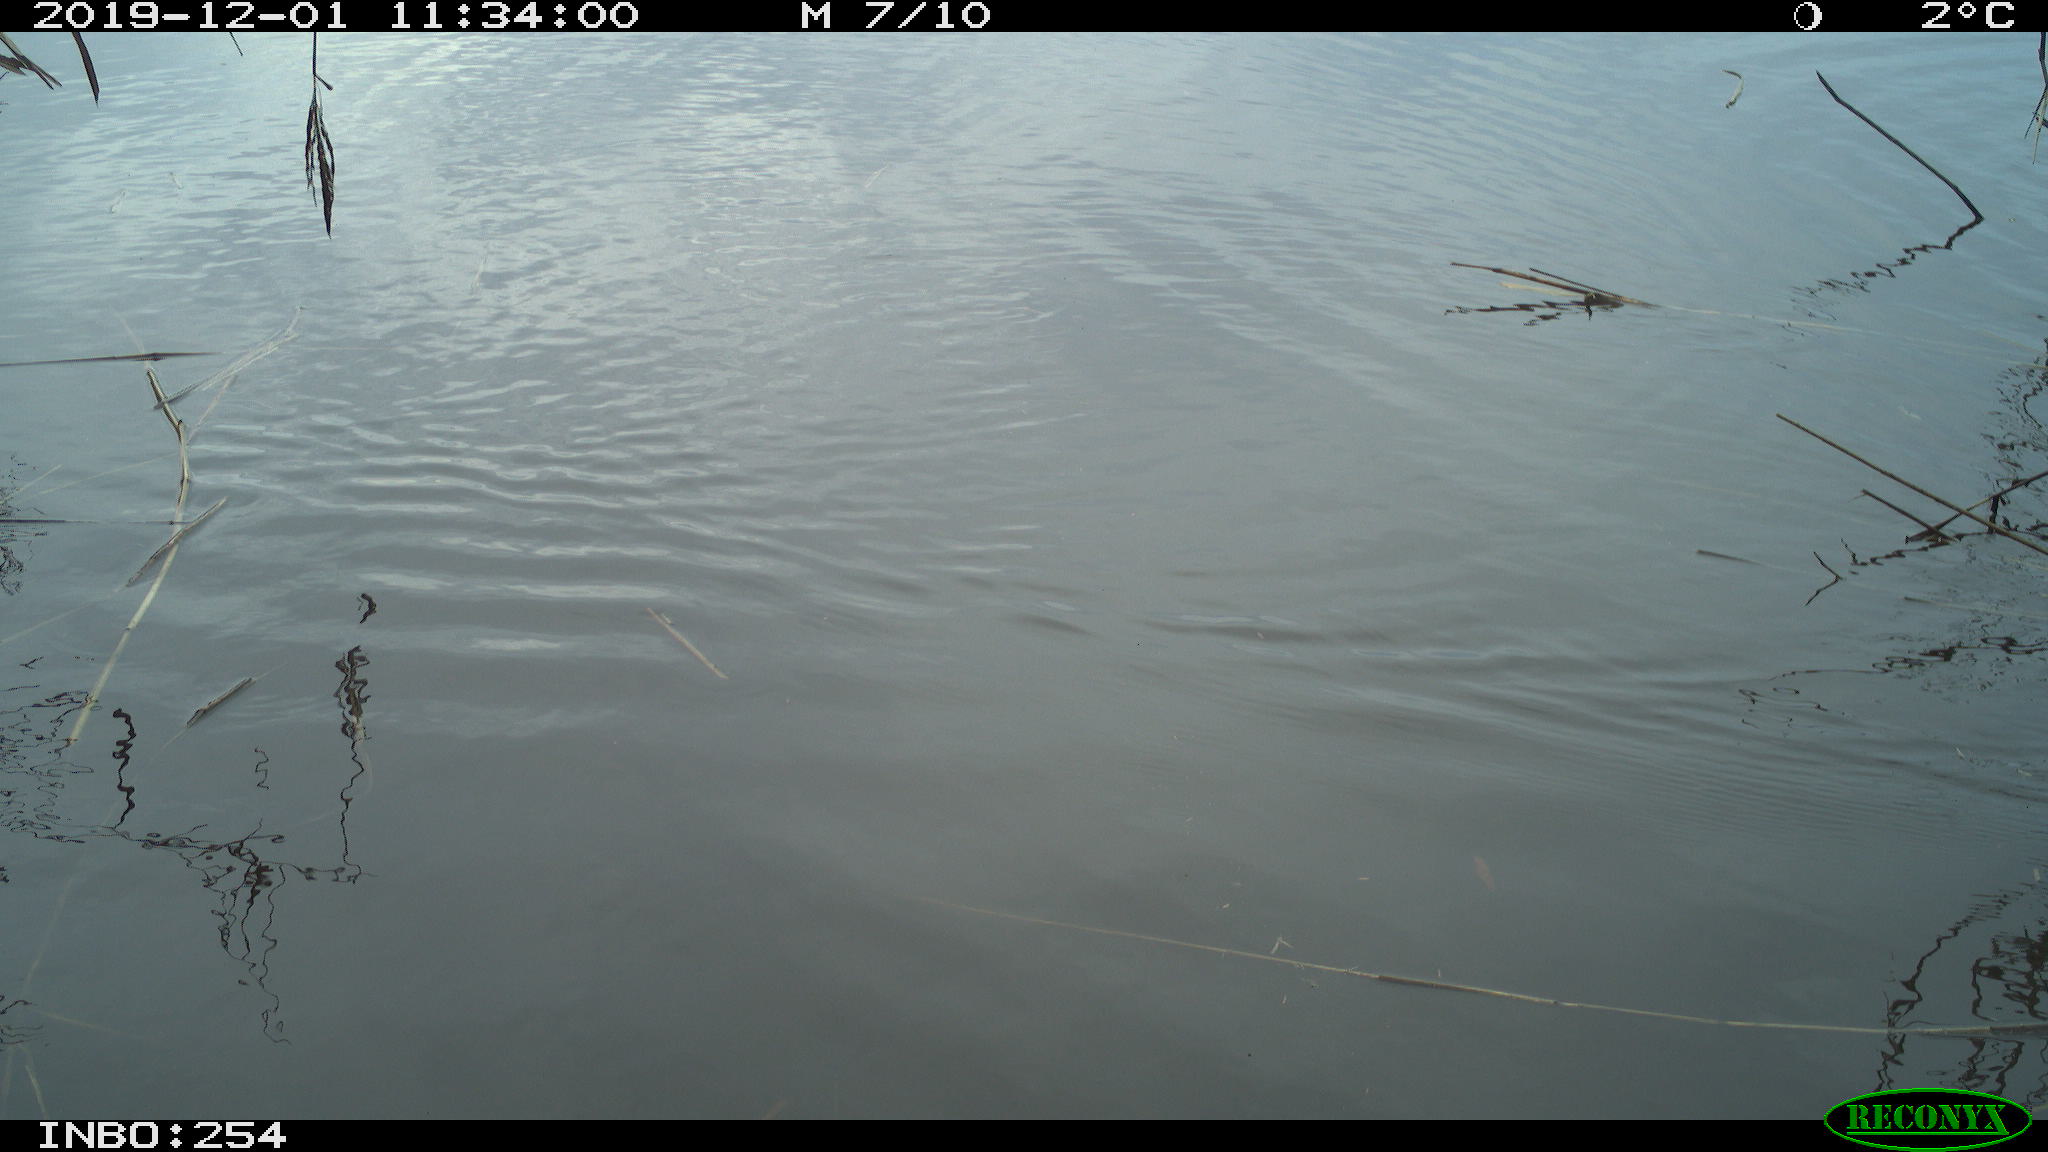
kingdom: Animalia
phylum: Chordata
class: Aves
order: Gruiformes
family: Rallidae
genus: Gallinula
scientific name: Gallinula chloropus
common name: Common moorhen
